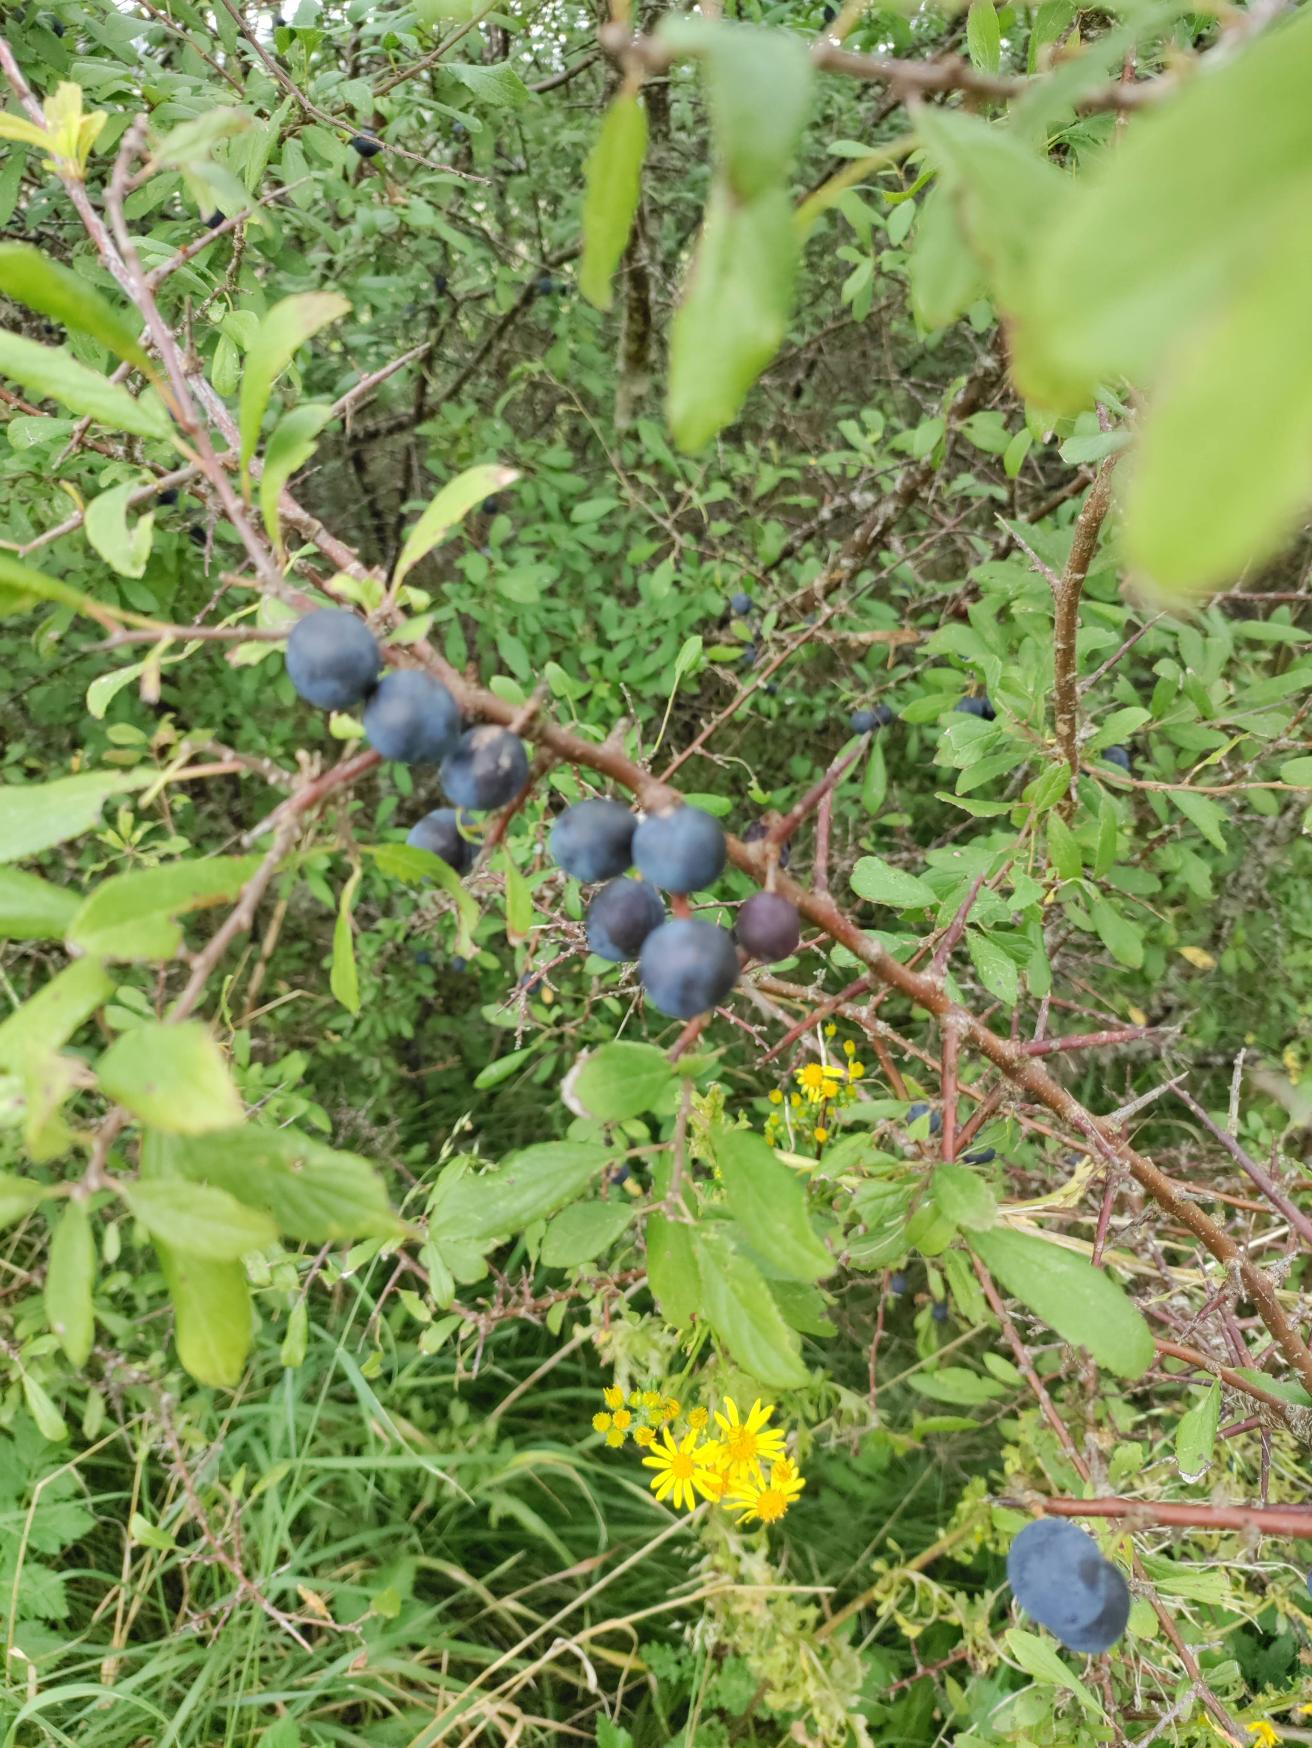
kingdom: Plantae
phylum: Tracheophyta
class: Magnoliopsida
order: Rosales
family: Rosaceae
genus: Prunus
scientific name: Prunus spinosa
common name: Slåen
